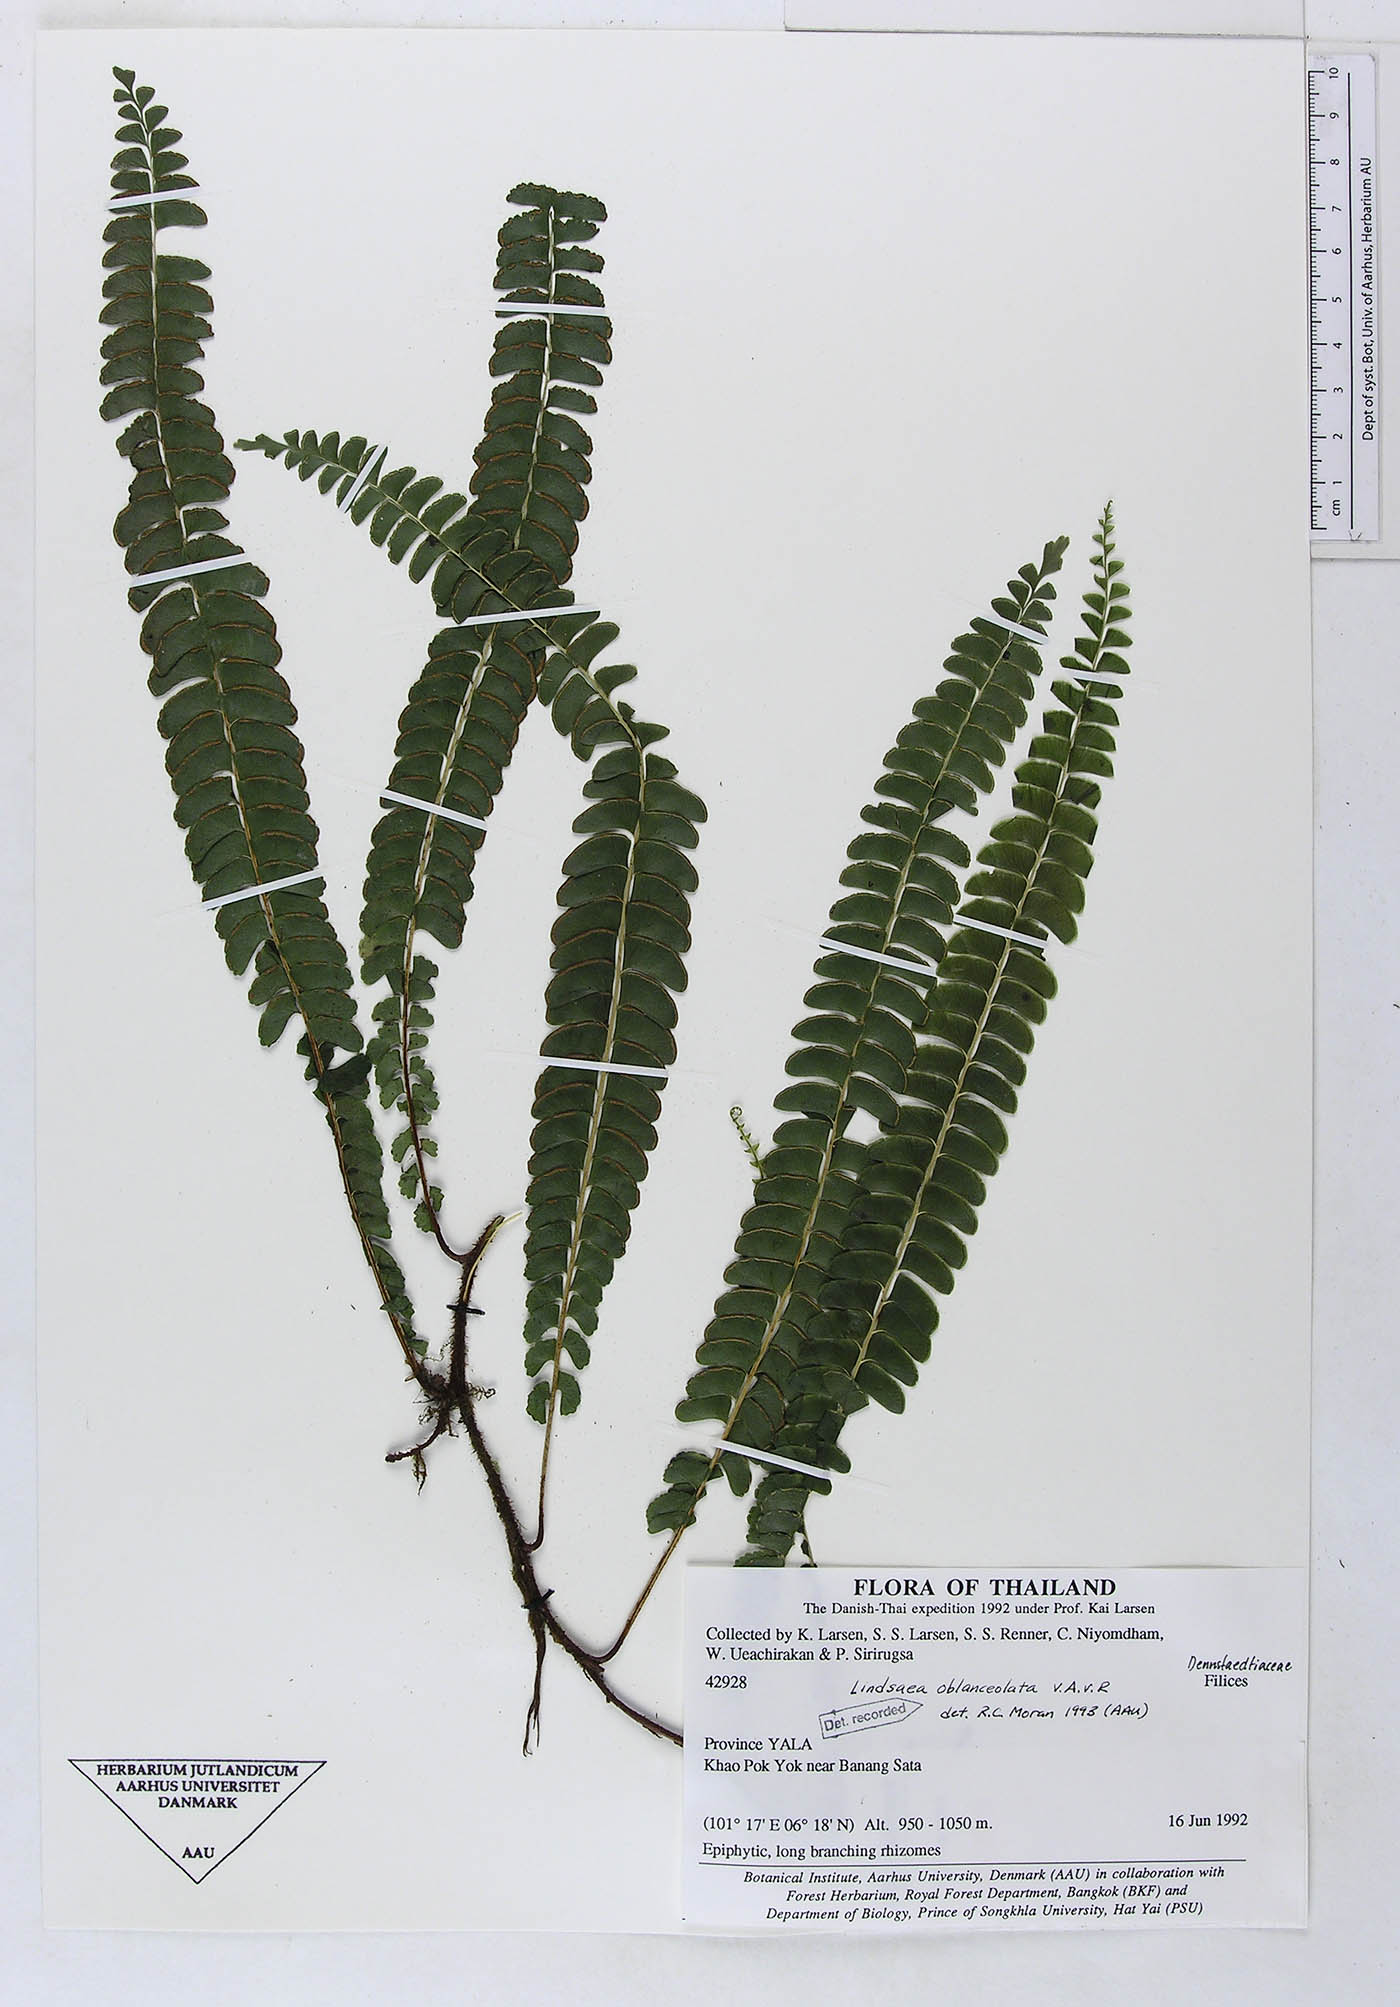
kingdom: Plantae
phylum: Tracheophyta
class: Polypodiopsida
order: Polypodiales
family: Dennstaedtiaceae
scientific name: Dennstaedtiaceae
